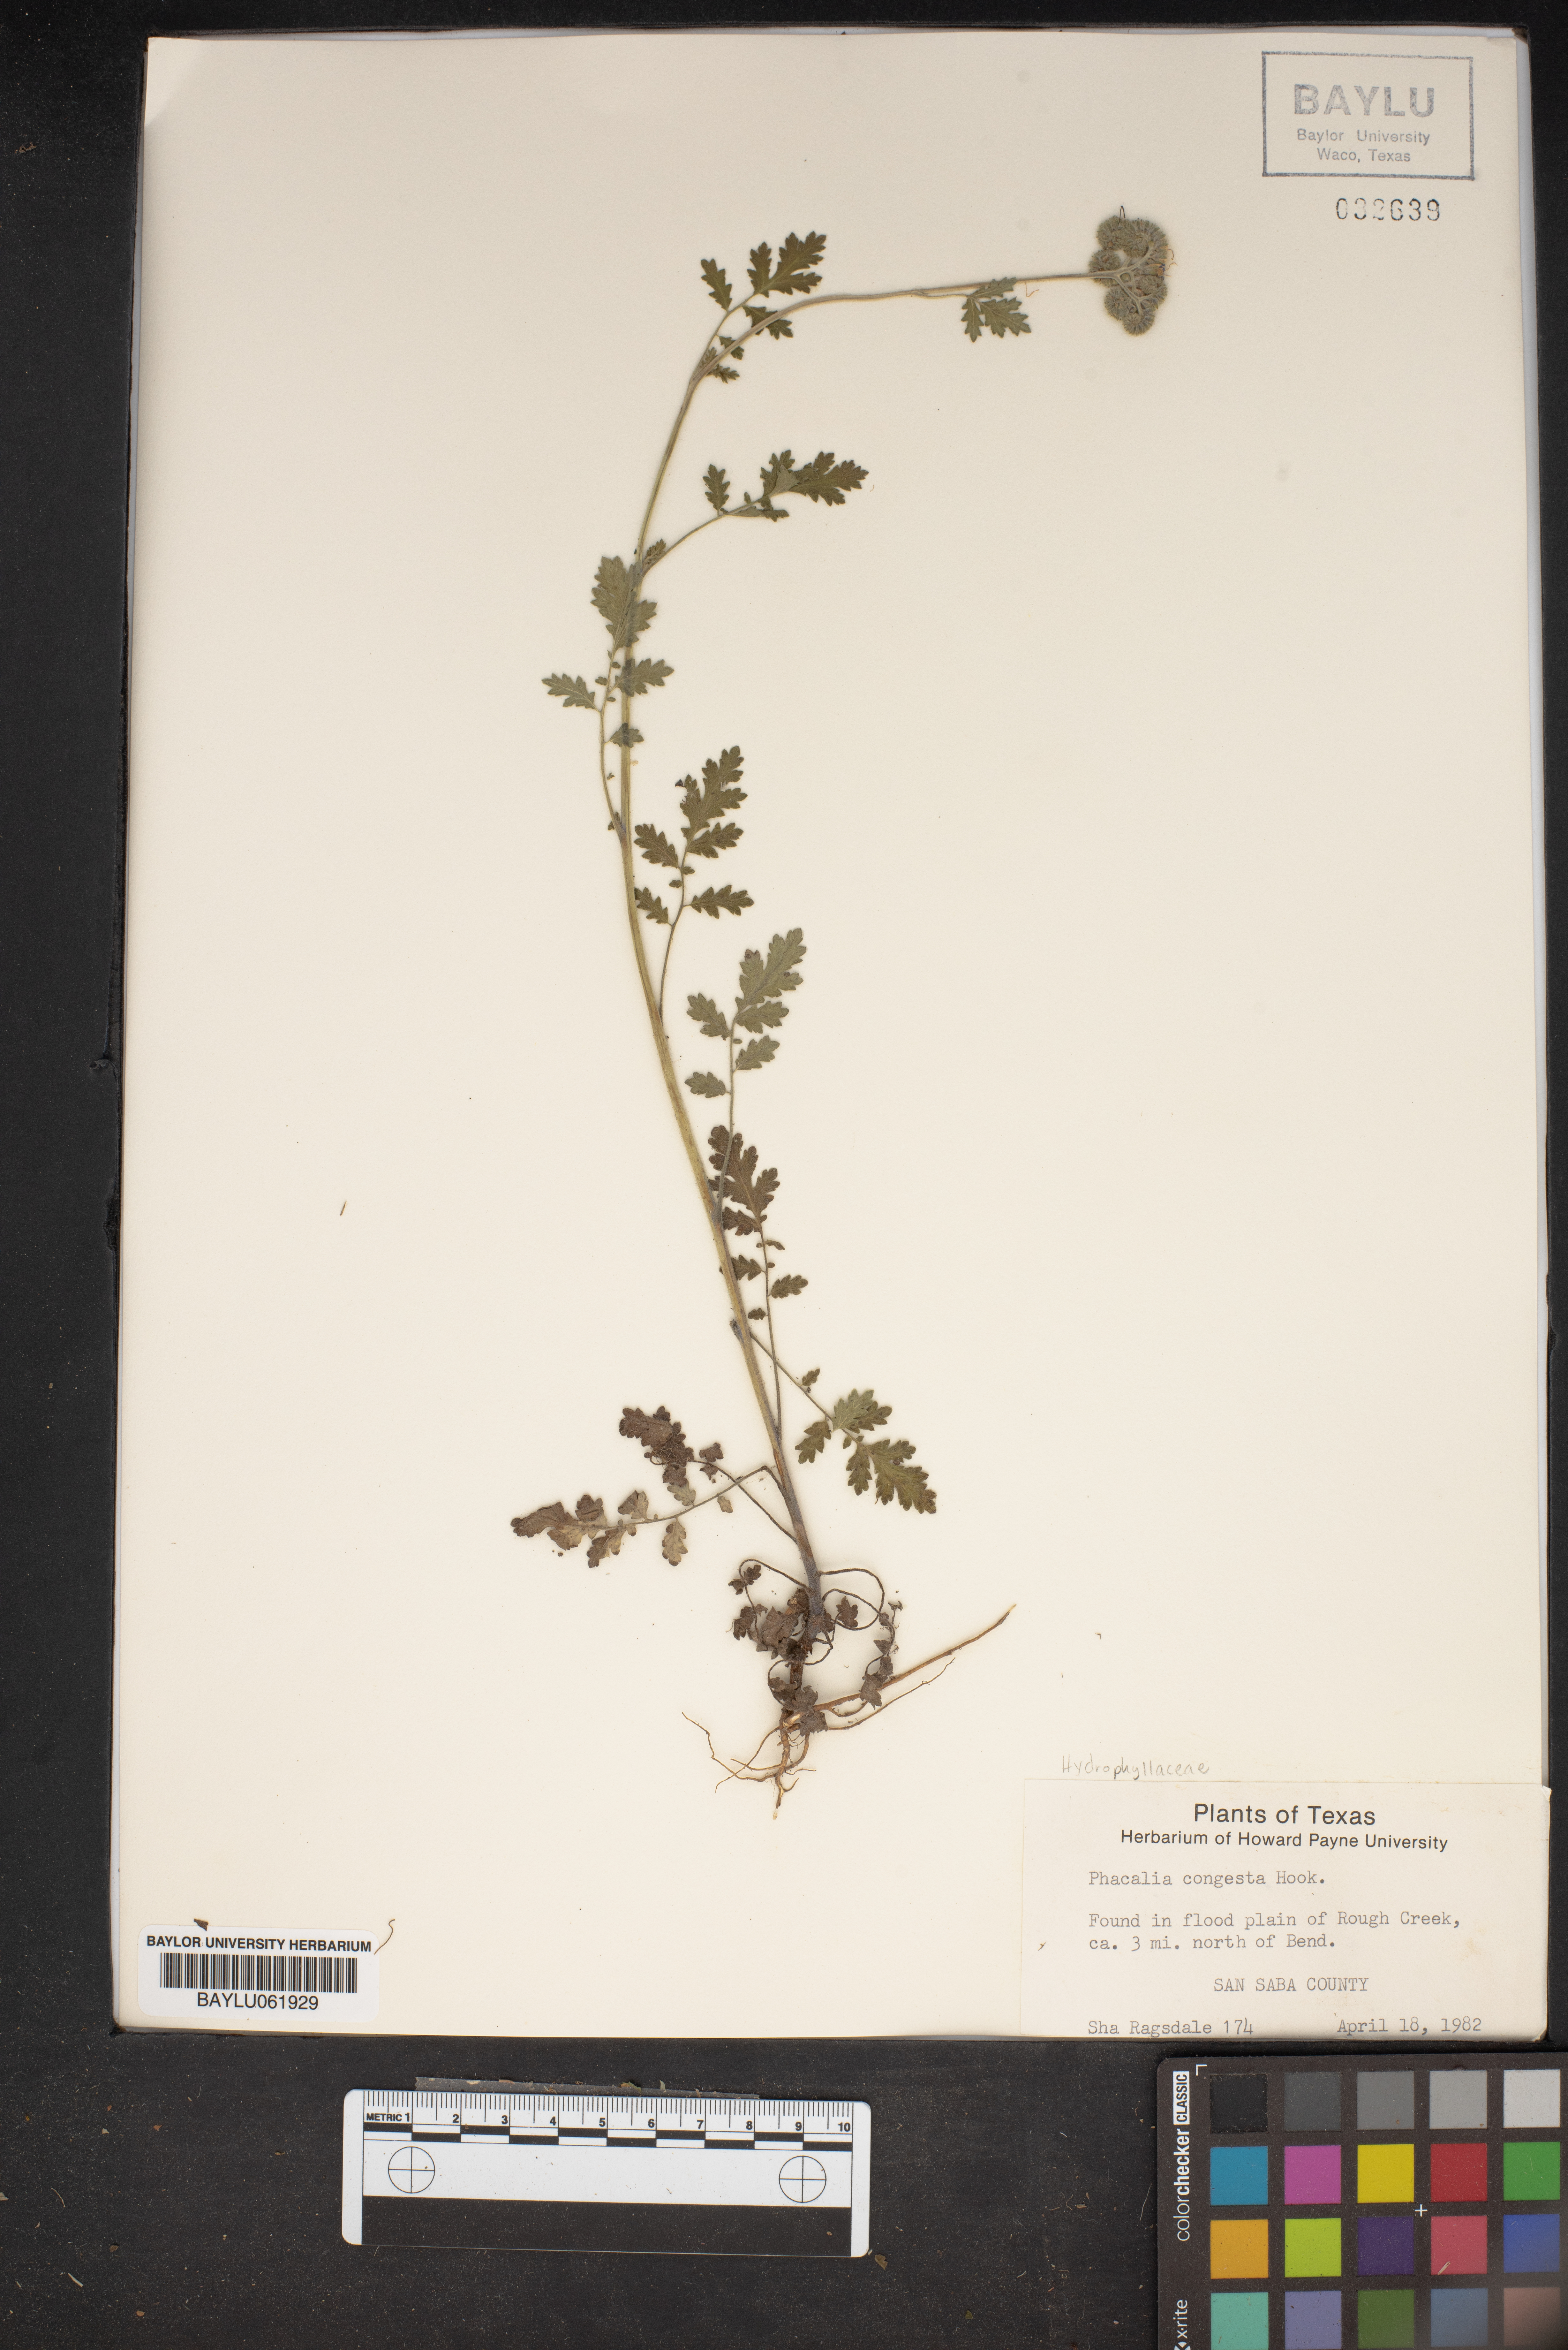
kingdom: Plantae
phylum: Tracheophyta
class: Magnoliopsida
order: Boraginales
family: Hydrophyllaceae
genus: Phacelia
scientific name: Phacelia congesta
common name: Blue curls
